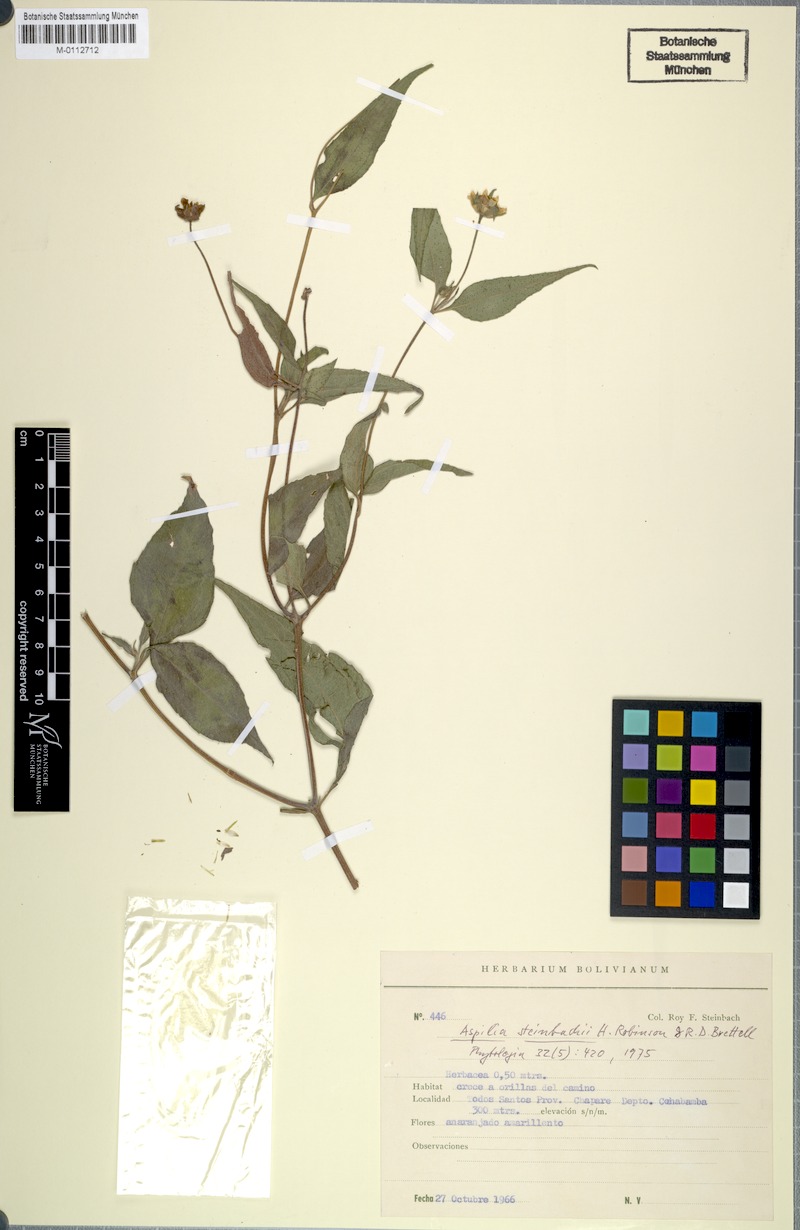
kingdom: Plantae
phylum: Tracheophyta
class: Magnoliopsida
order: Asterales
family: Asteraceae
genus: Elaphandra
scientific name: Elaphandra ulei
